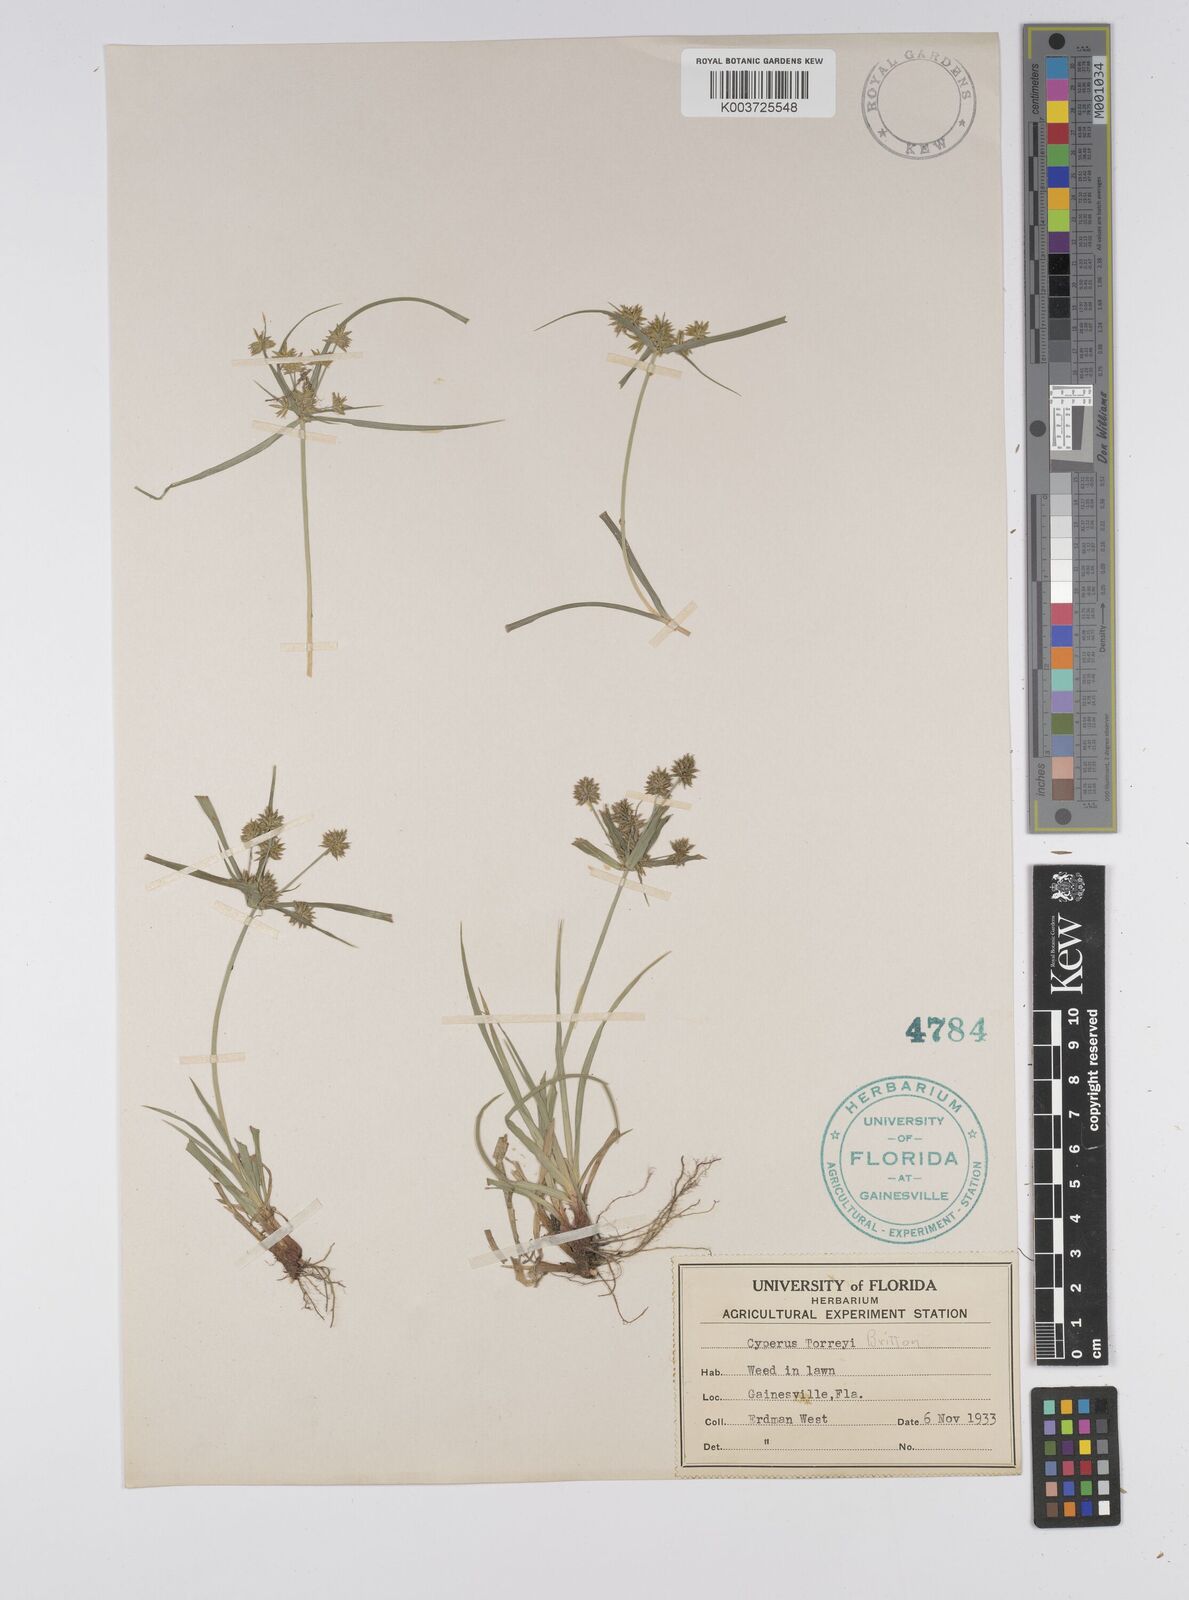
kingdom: Plantae
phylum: Tracheophyta
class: Liliopsida
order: Poales
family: Cyperaceae
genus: Cyperus
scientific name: Cyperus retrorsus
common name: Pinebarren flat sedge
